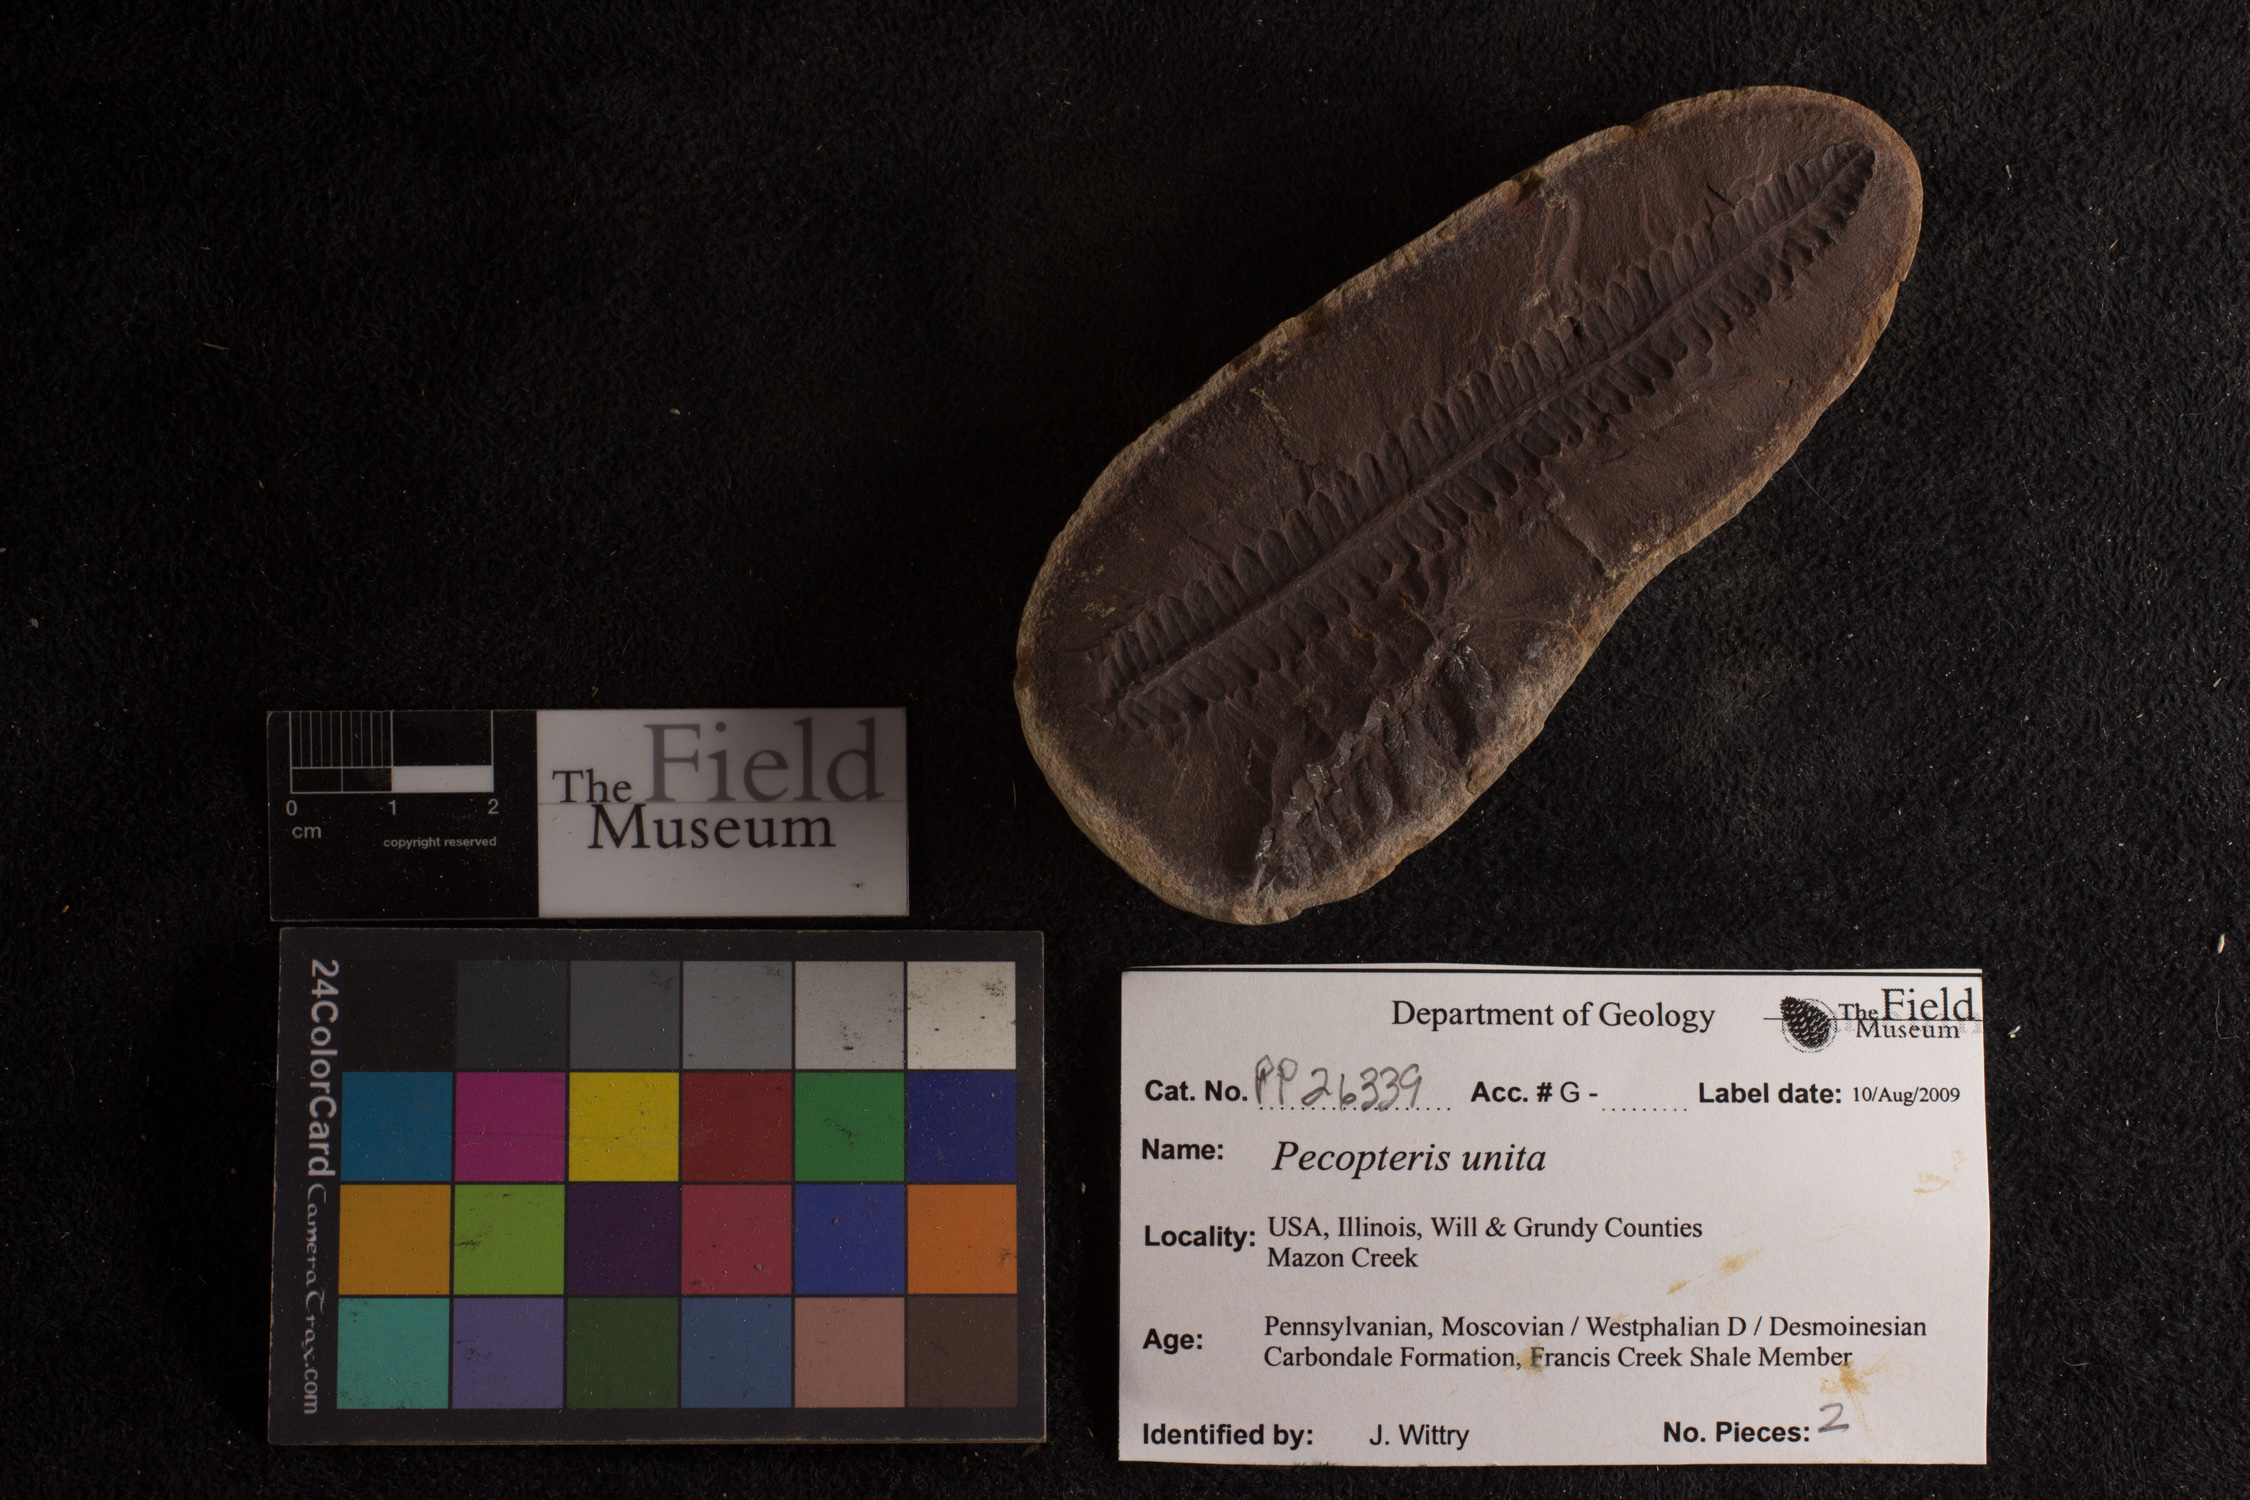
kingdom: Plantae
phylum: Tracheophyta
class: Polypodiopsida
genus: Diplazites
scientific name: Diplazites
